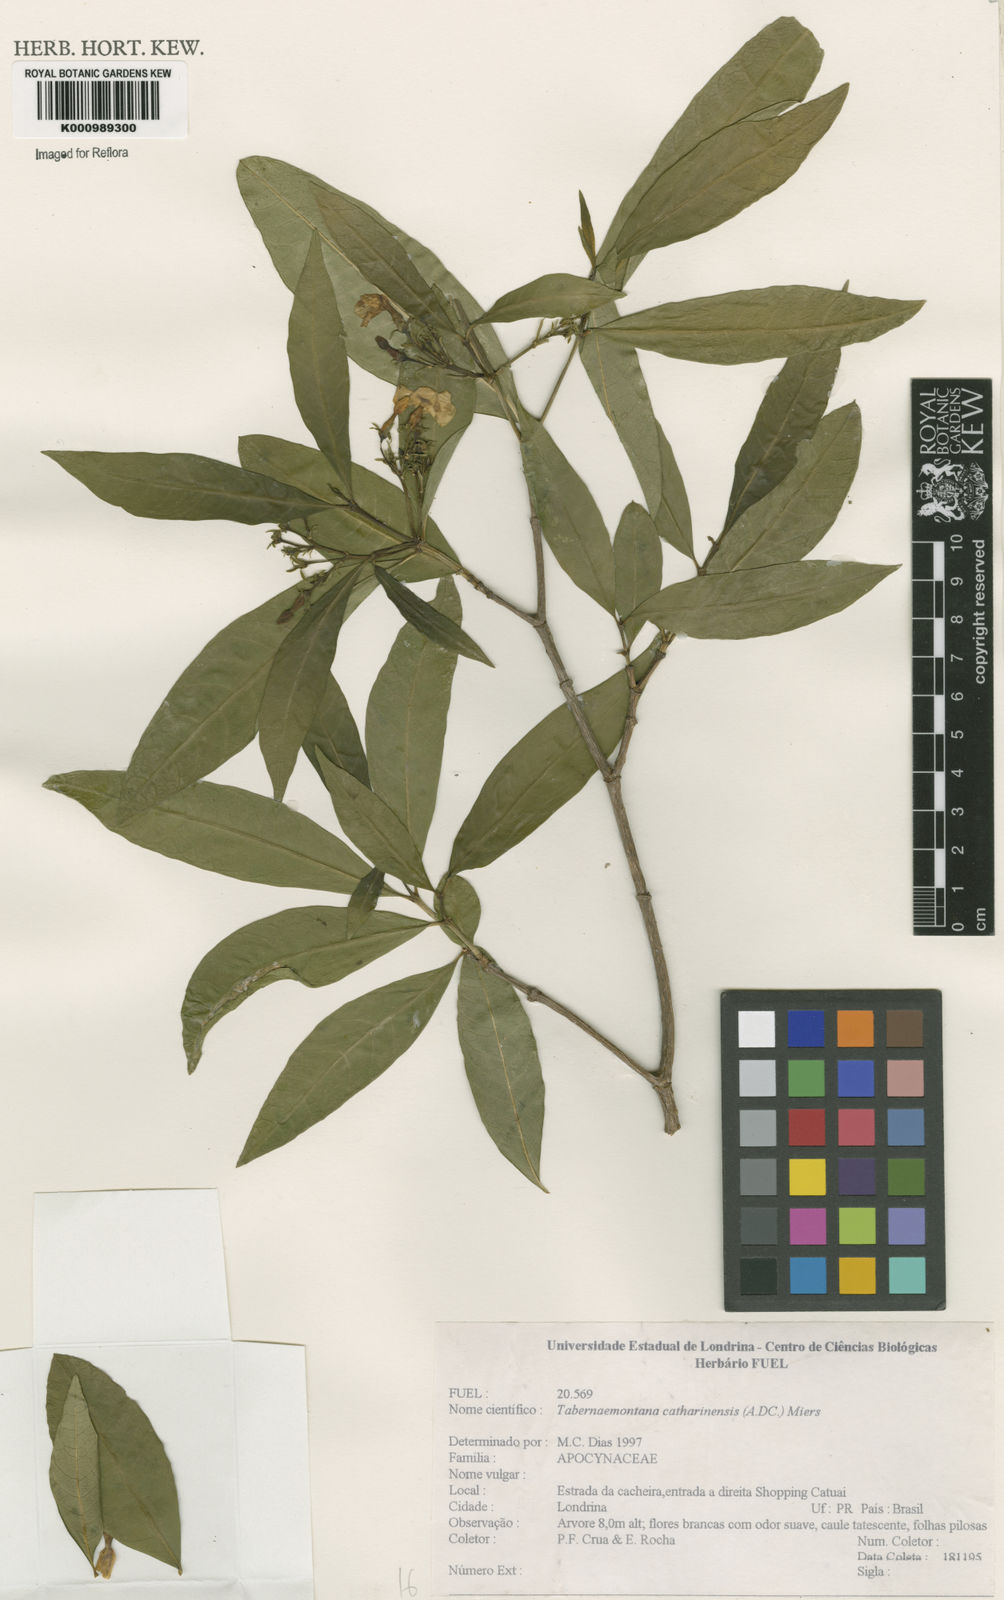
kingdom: Plantae
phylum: Tracheophyta
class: Magnoliopsida
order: Gentianales
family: Apocynaceae
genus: Tabernaemontana
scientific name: Tabernaemontana catharinensis
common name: Pinwheel-flower
